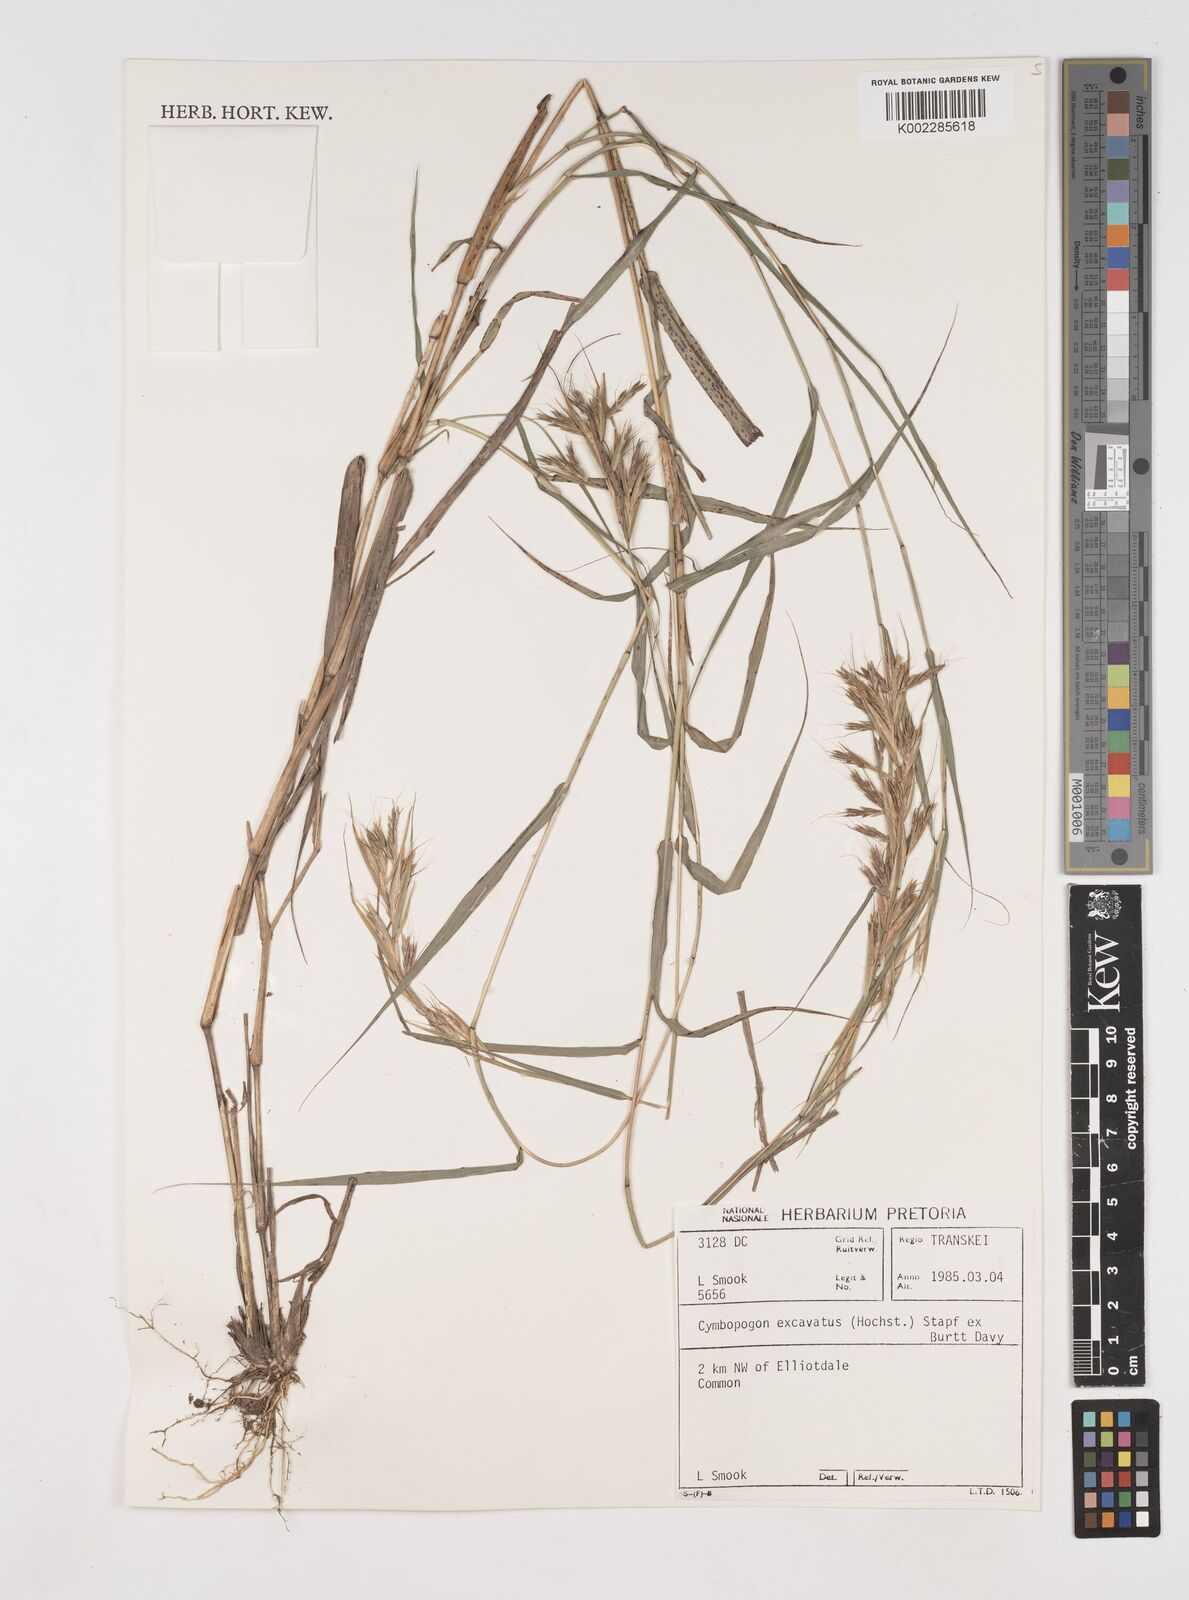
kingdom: Plantae
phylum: Tracheophyta
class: Liliopsida
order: Poales
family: Poaceae
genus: Cymbopogon
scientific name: Cymbopogon caesius
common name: Kachi grass
